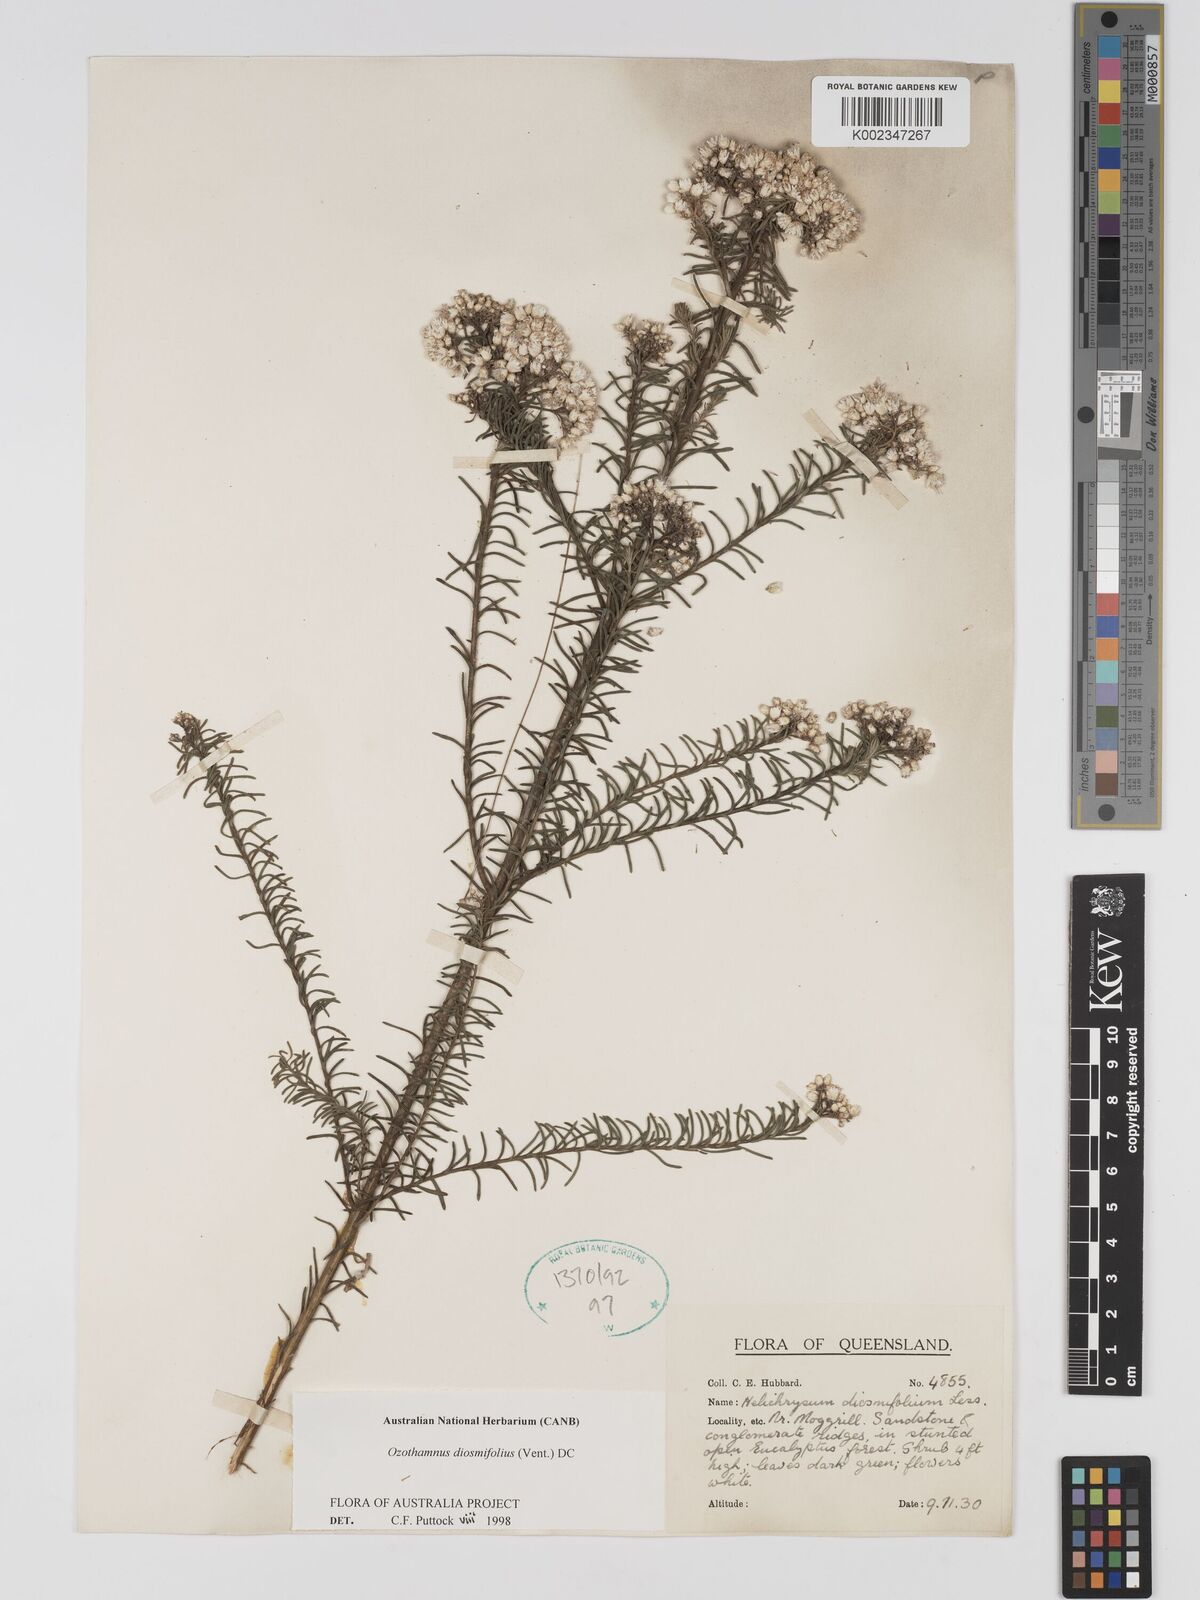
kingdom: Plantae
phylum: Tracheophyta
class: Magnoliopsida
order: Asterales
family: Asteraceae
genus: Ozothamnus
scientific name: Ozothamnus diosmifolius
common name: White-dogwood
